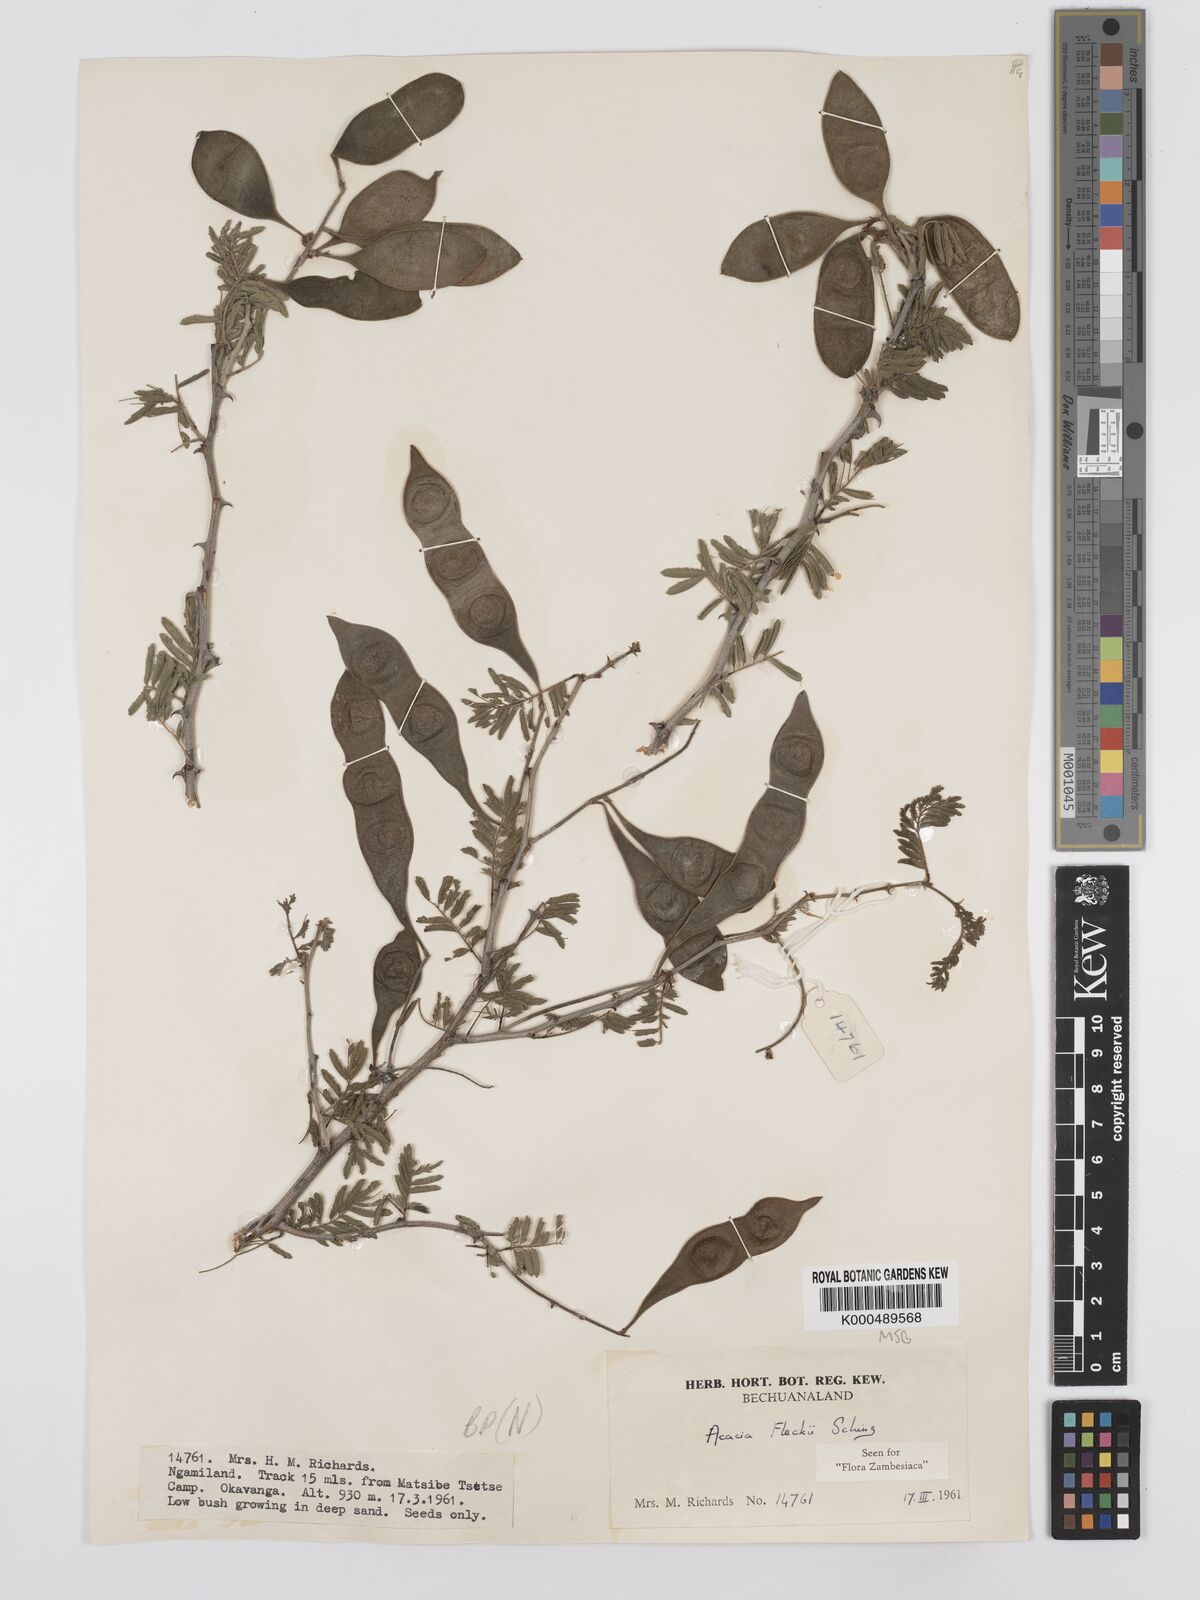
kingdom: Plantae
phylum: Tracheophyta
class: Magnoliopsida
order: Fabales
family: Fabaceae
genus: Senegalia
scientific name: Senegalia fleckii
